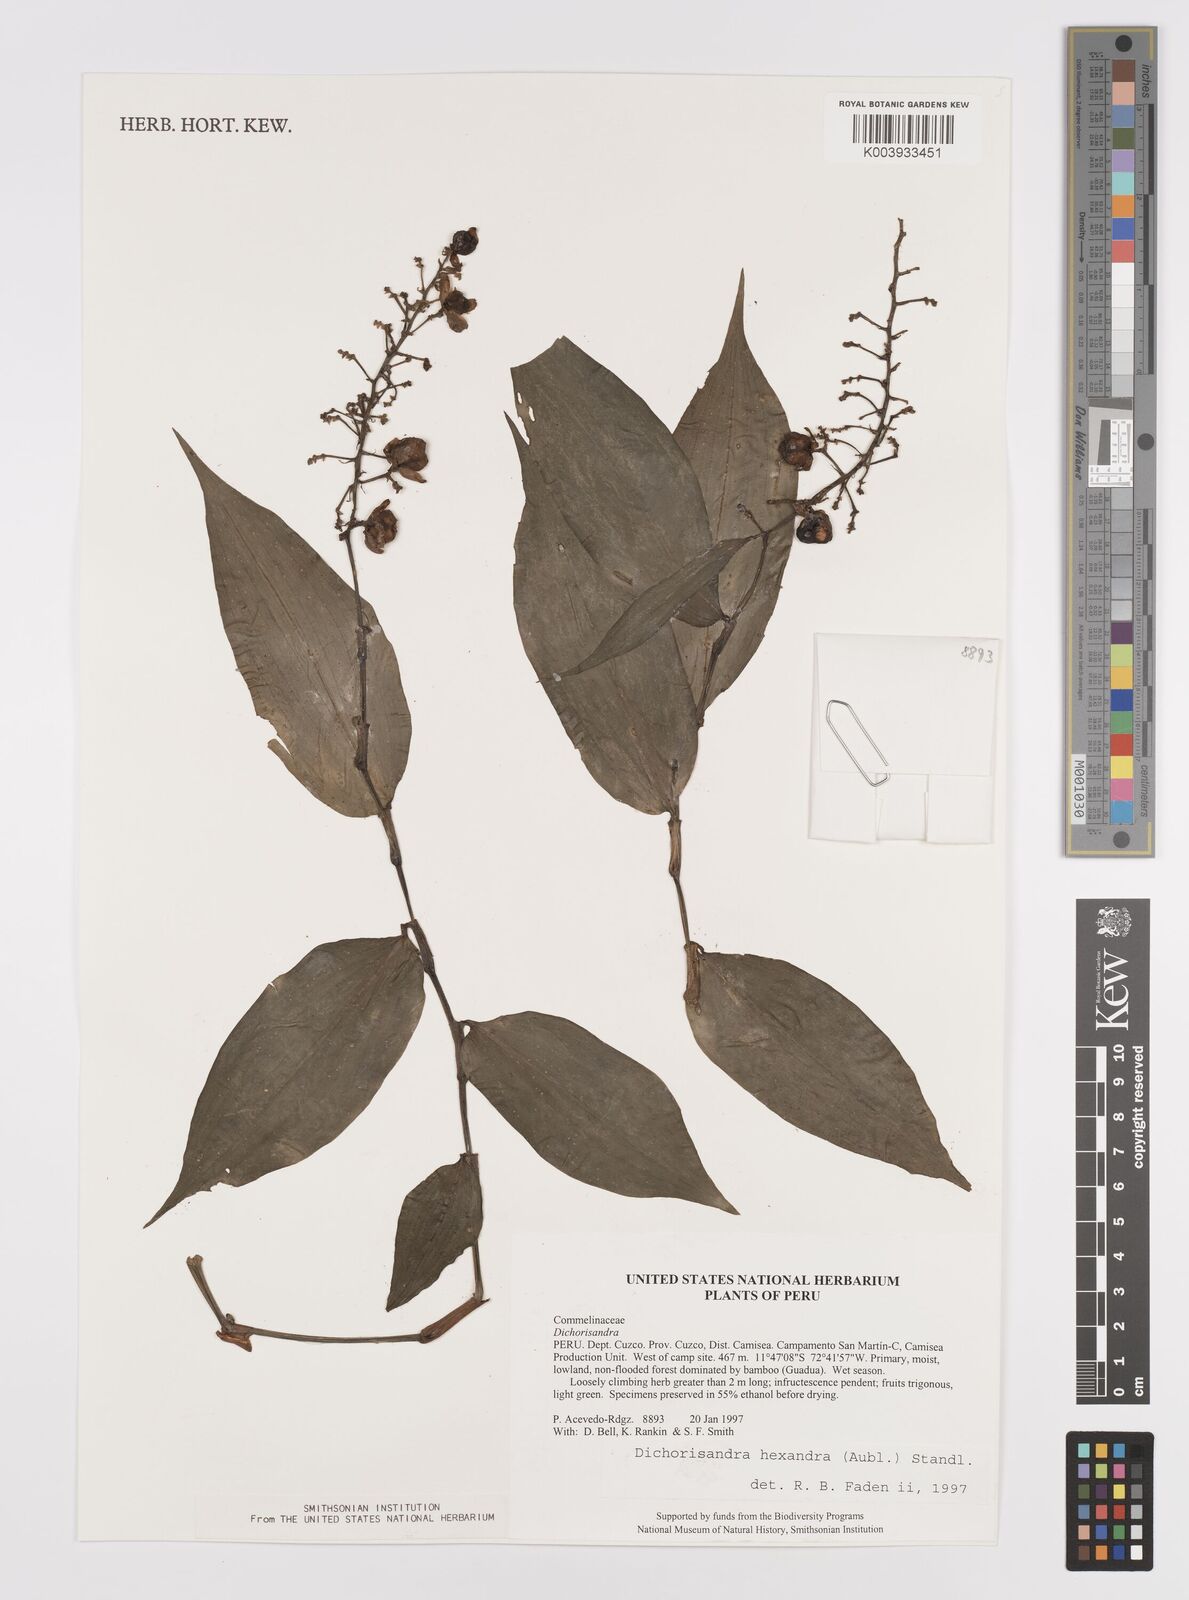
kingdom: Plantae
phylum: Tracheophyta
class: Liliopsida
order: Commelinales
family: Commelinaceae
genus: Dichorisandra
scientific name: Dichorisandra hexandra
